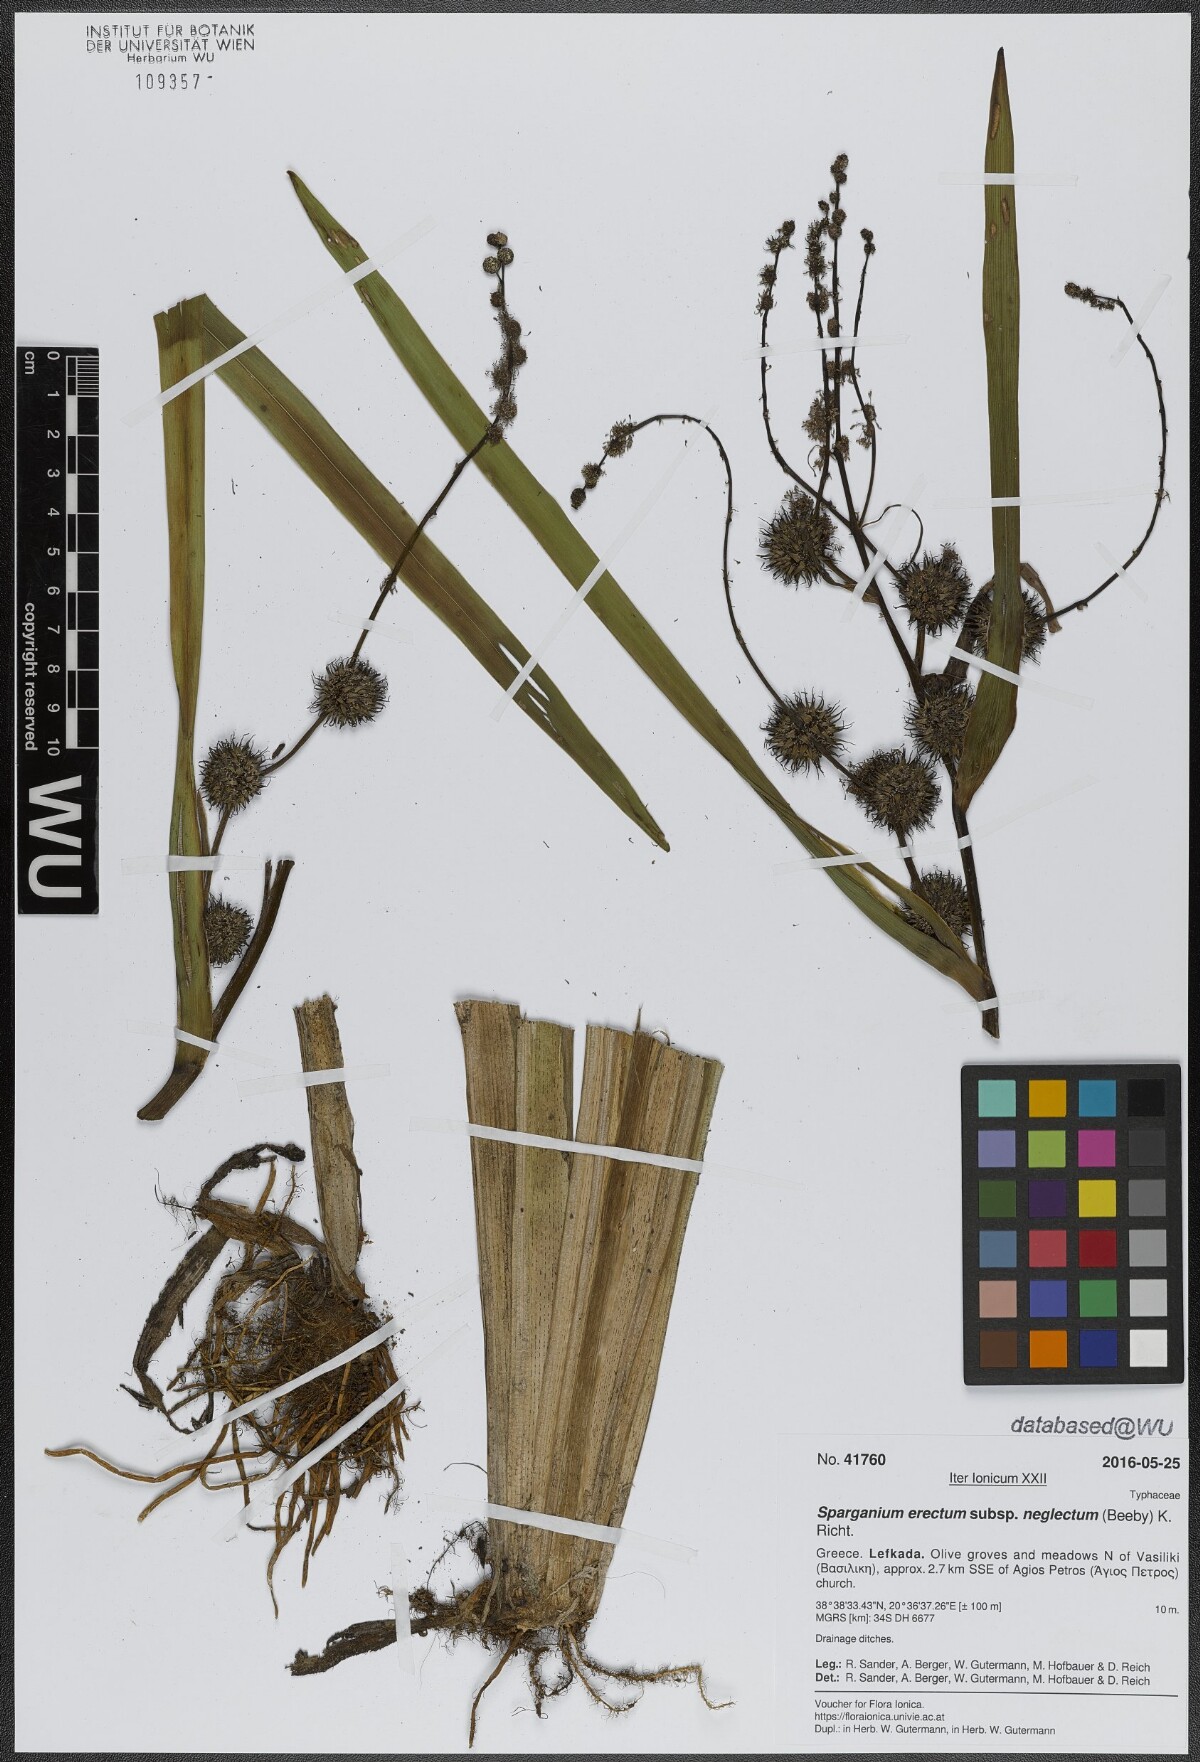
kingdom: Plantae
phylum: Tracheophyta
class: Liliopsida
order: Poales
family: Typhaceae
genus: Sparganium
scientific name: Sparganium erectum
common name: Branched bur-reed
